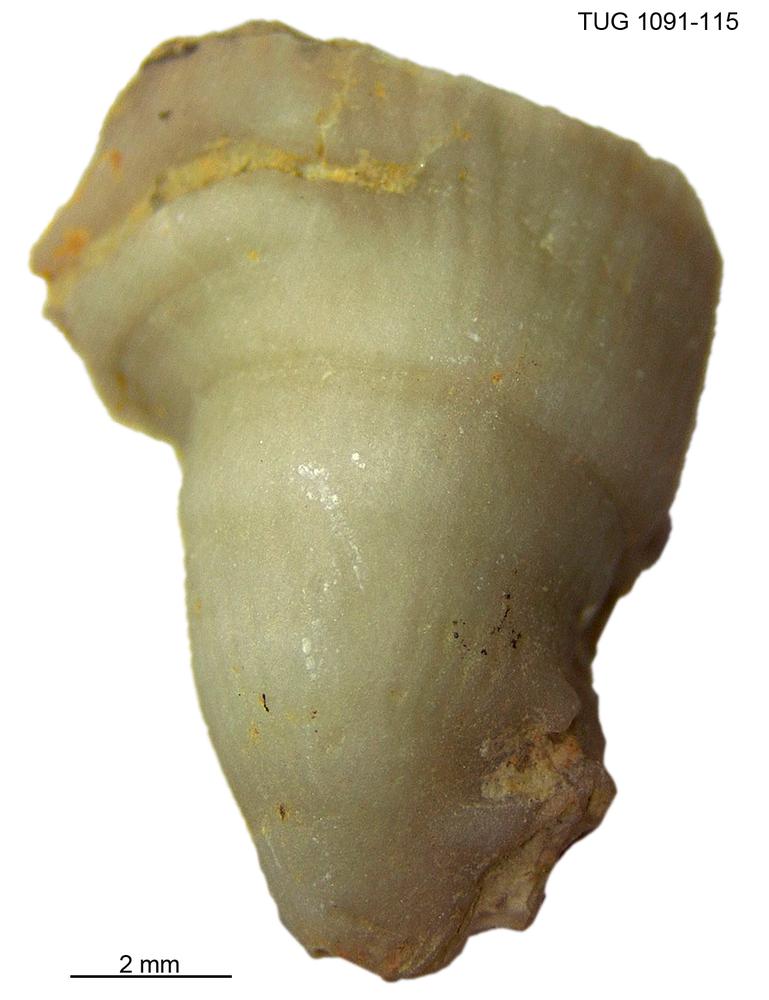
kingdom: Animalia
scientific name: Animalia
